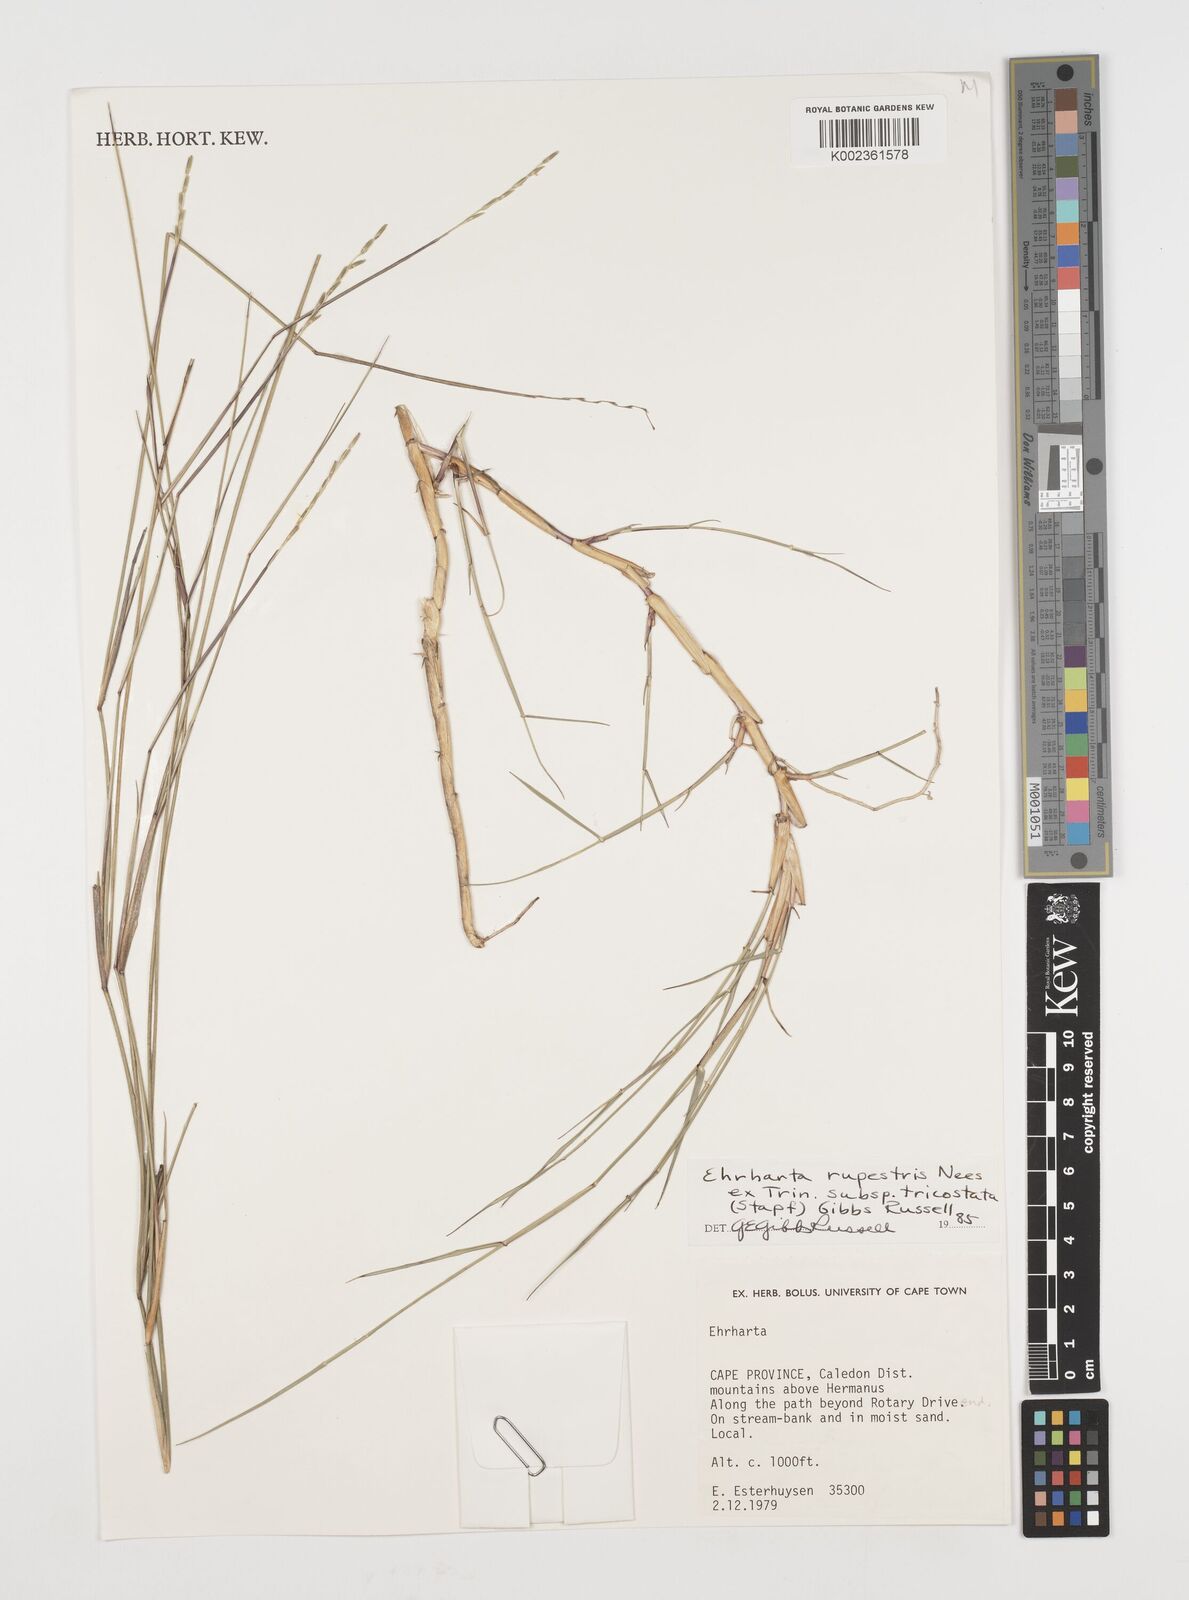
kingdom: Plantae
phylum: Tracheophyta
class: Liliopsida
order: Poales
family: Poaceae
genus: Ehrharta
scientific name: Ehrharta rupestris
